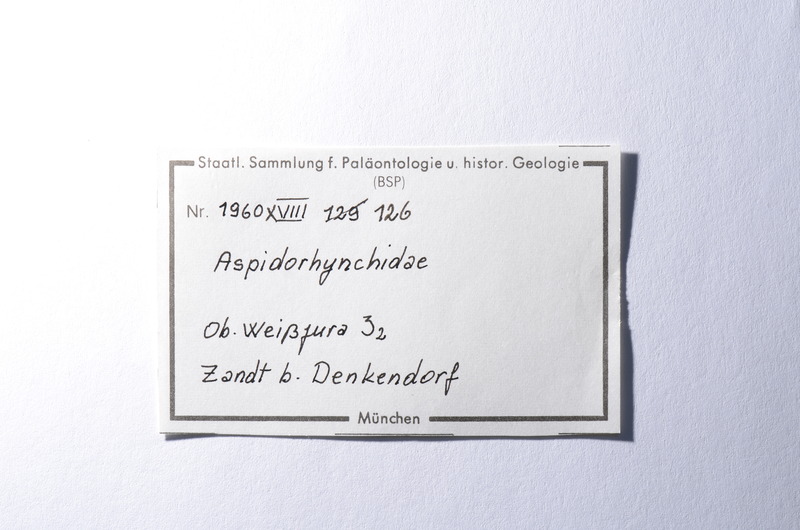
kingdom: Animalia
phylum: Chordata
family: Aspidorhynchidae
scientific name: Aspidorhynchidae
